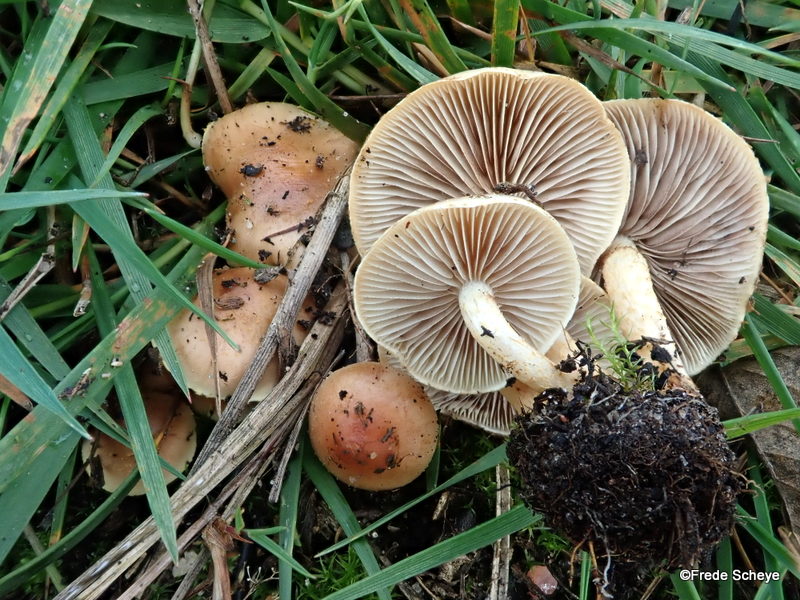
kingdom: Fungi
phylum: Basidiomycota
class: Agaricomycetes
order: Agaricales
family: Strophariaceae
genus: Pholiota
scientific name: Pholiota carbonaria
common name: kul-skælhat
